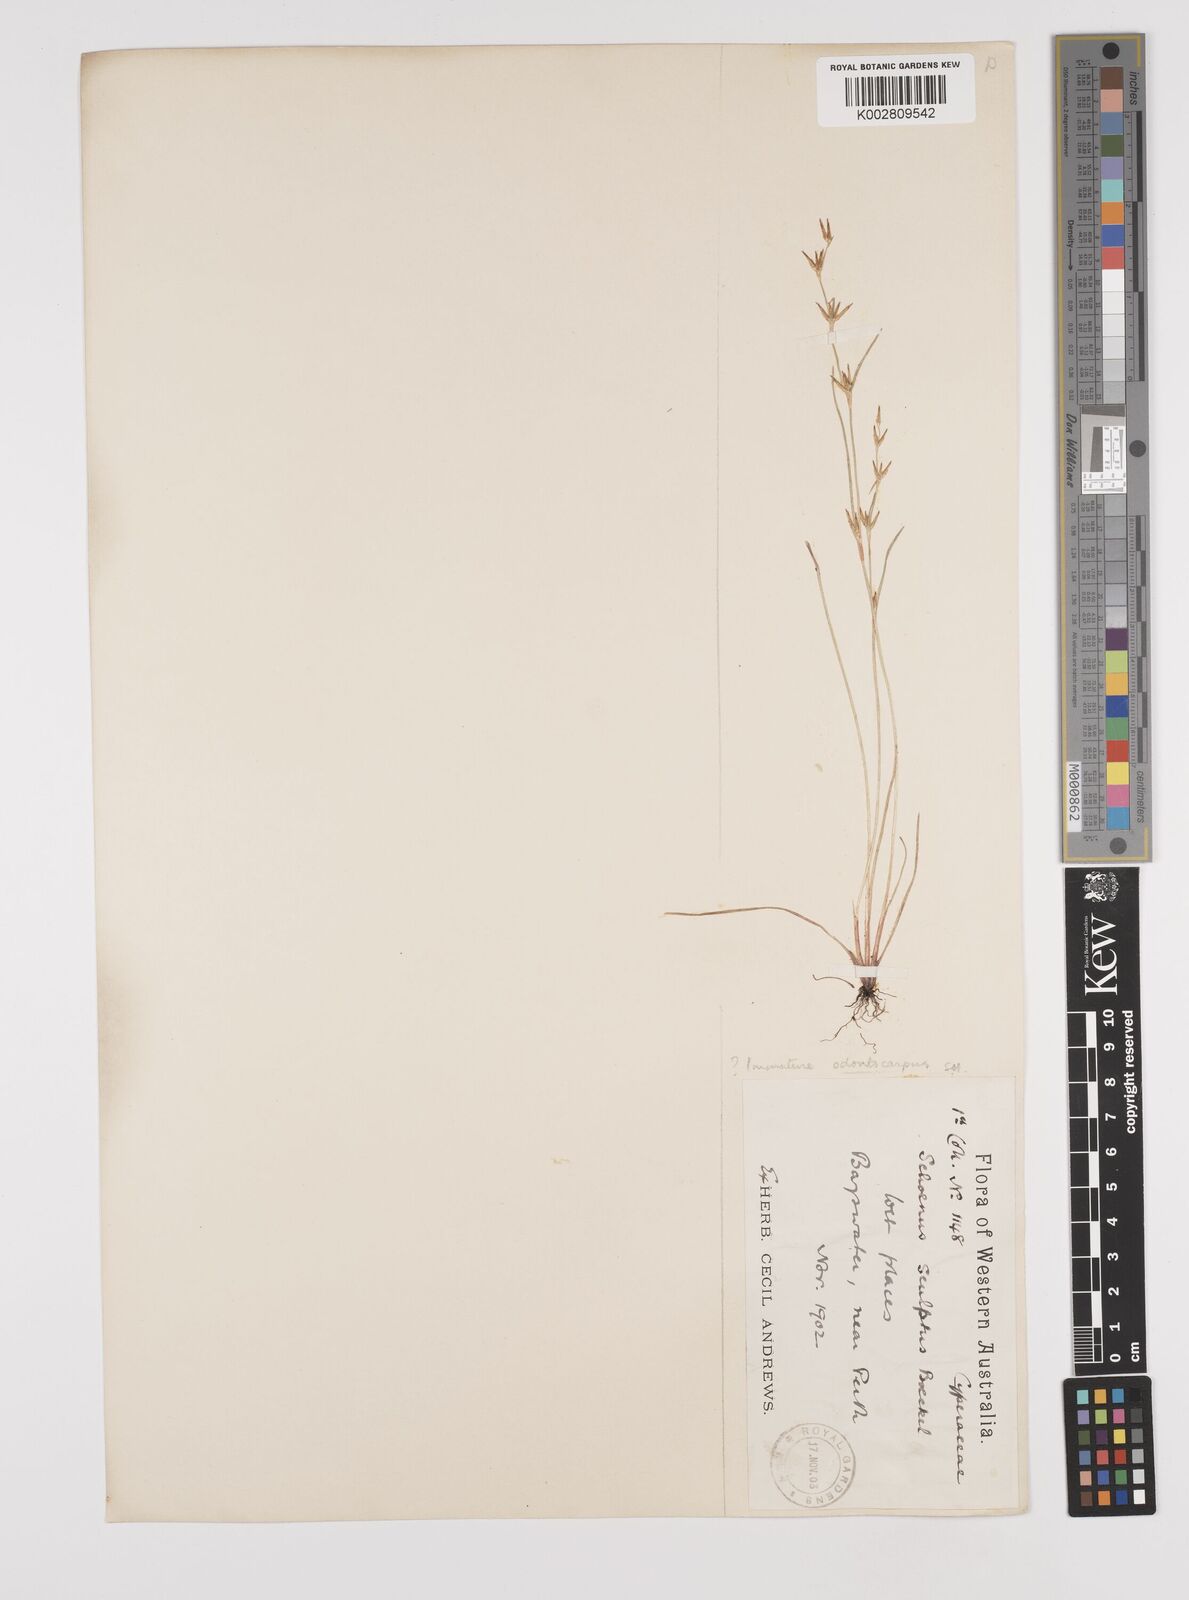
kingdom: Plantae
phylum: Tracheophyta
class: Liliopsida
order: Poales
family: Cyperaceae
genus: Schoenus
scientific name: Schoenus
